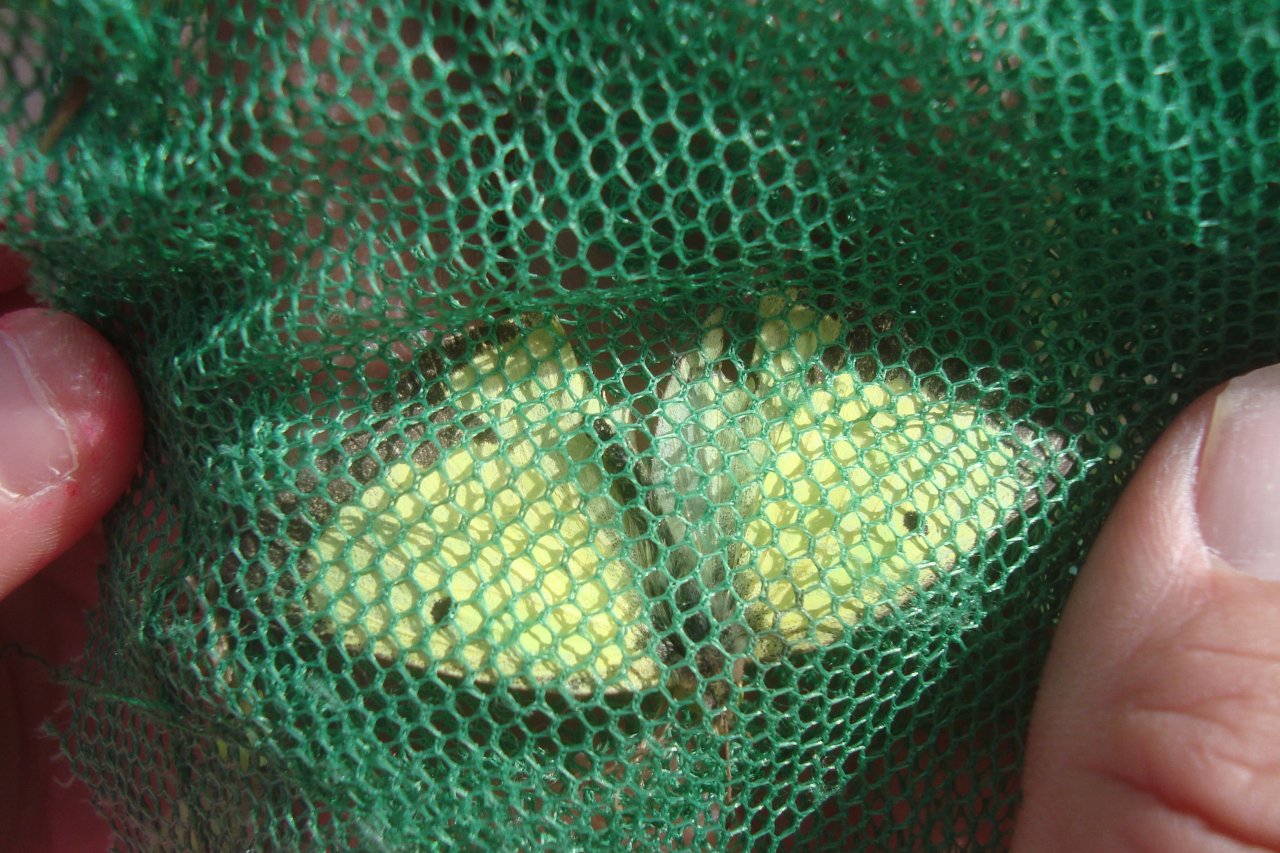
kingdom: Animalia
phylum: Arthropoda
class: Insecta
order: Lepidoptera
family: Pieridae
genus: Colias
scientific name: Colias philodice
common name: Clouded Sulphur
